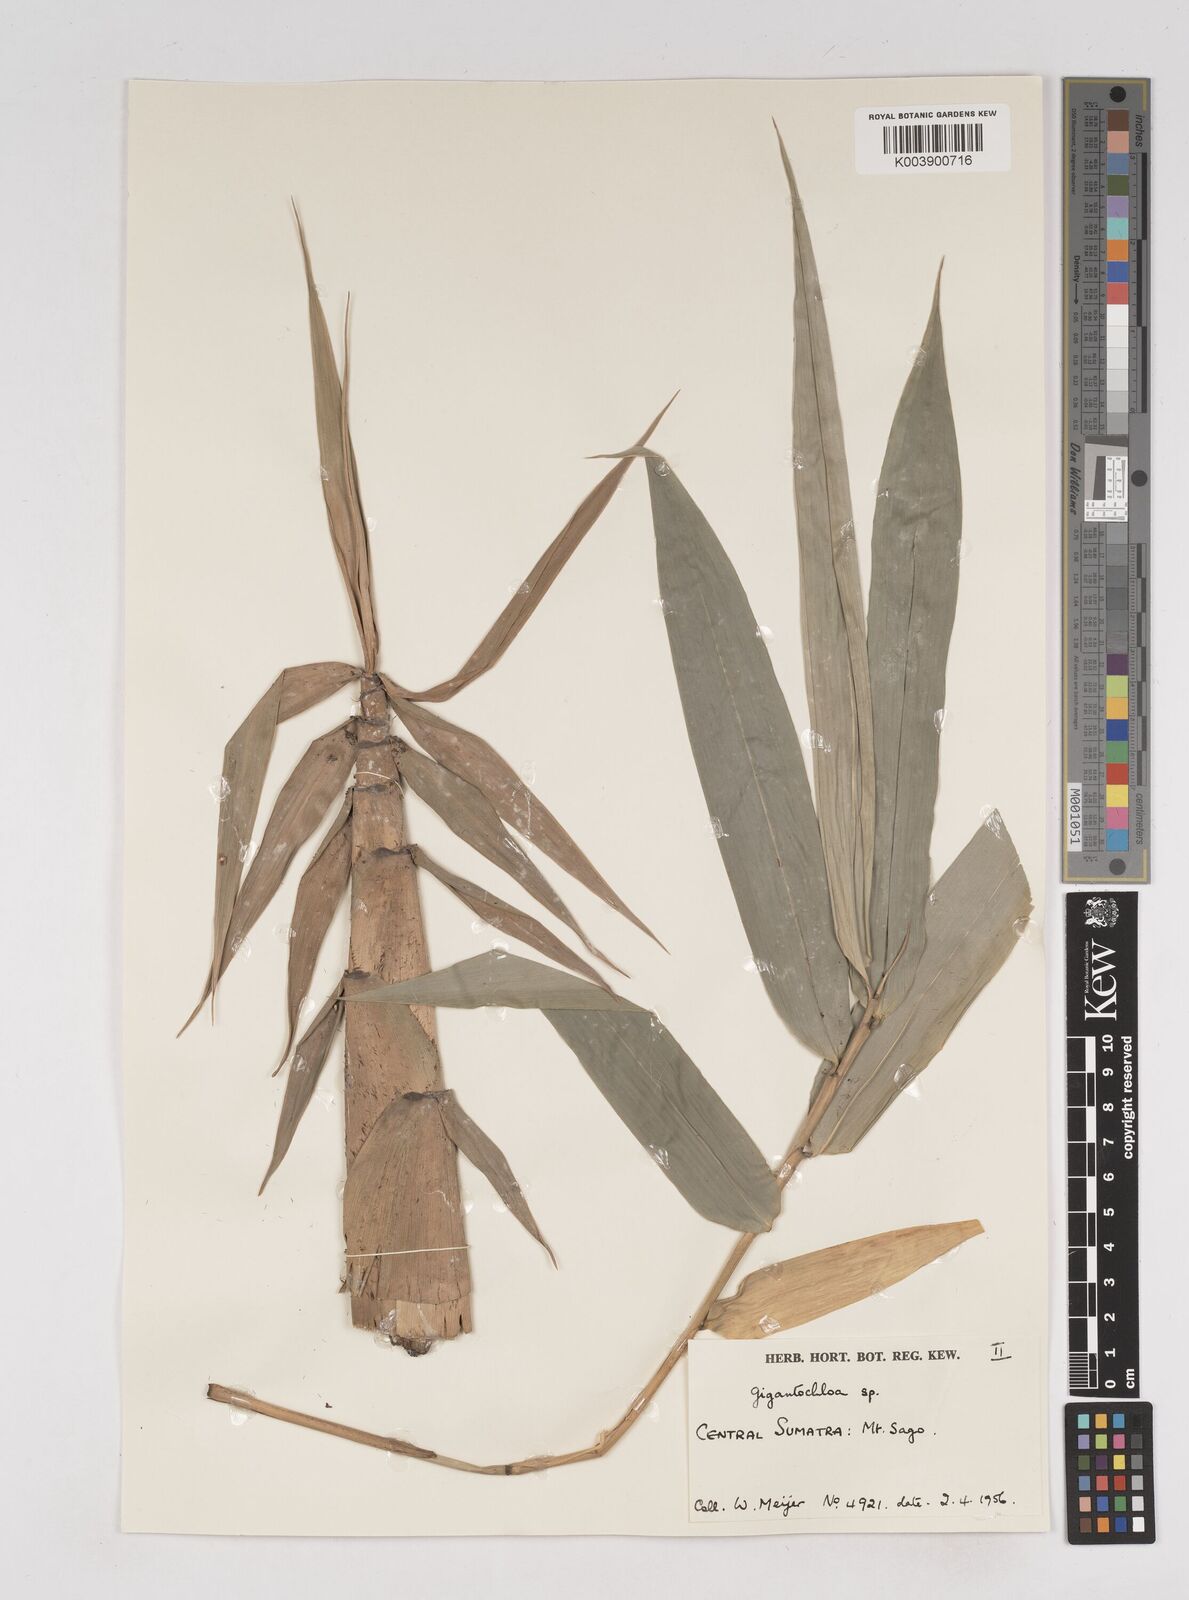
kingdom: Plantae
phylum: Tracheophyta
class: Liliopsida
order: Poales
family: Poaceae
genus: Gigantochloa
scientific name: Gigantochloa
